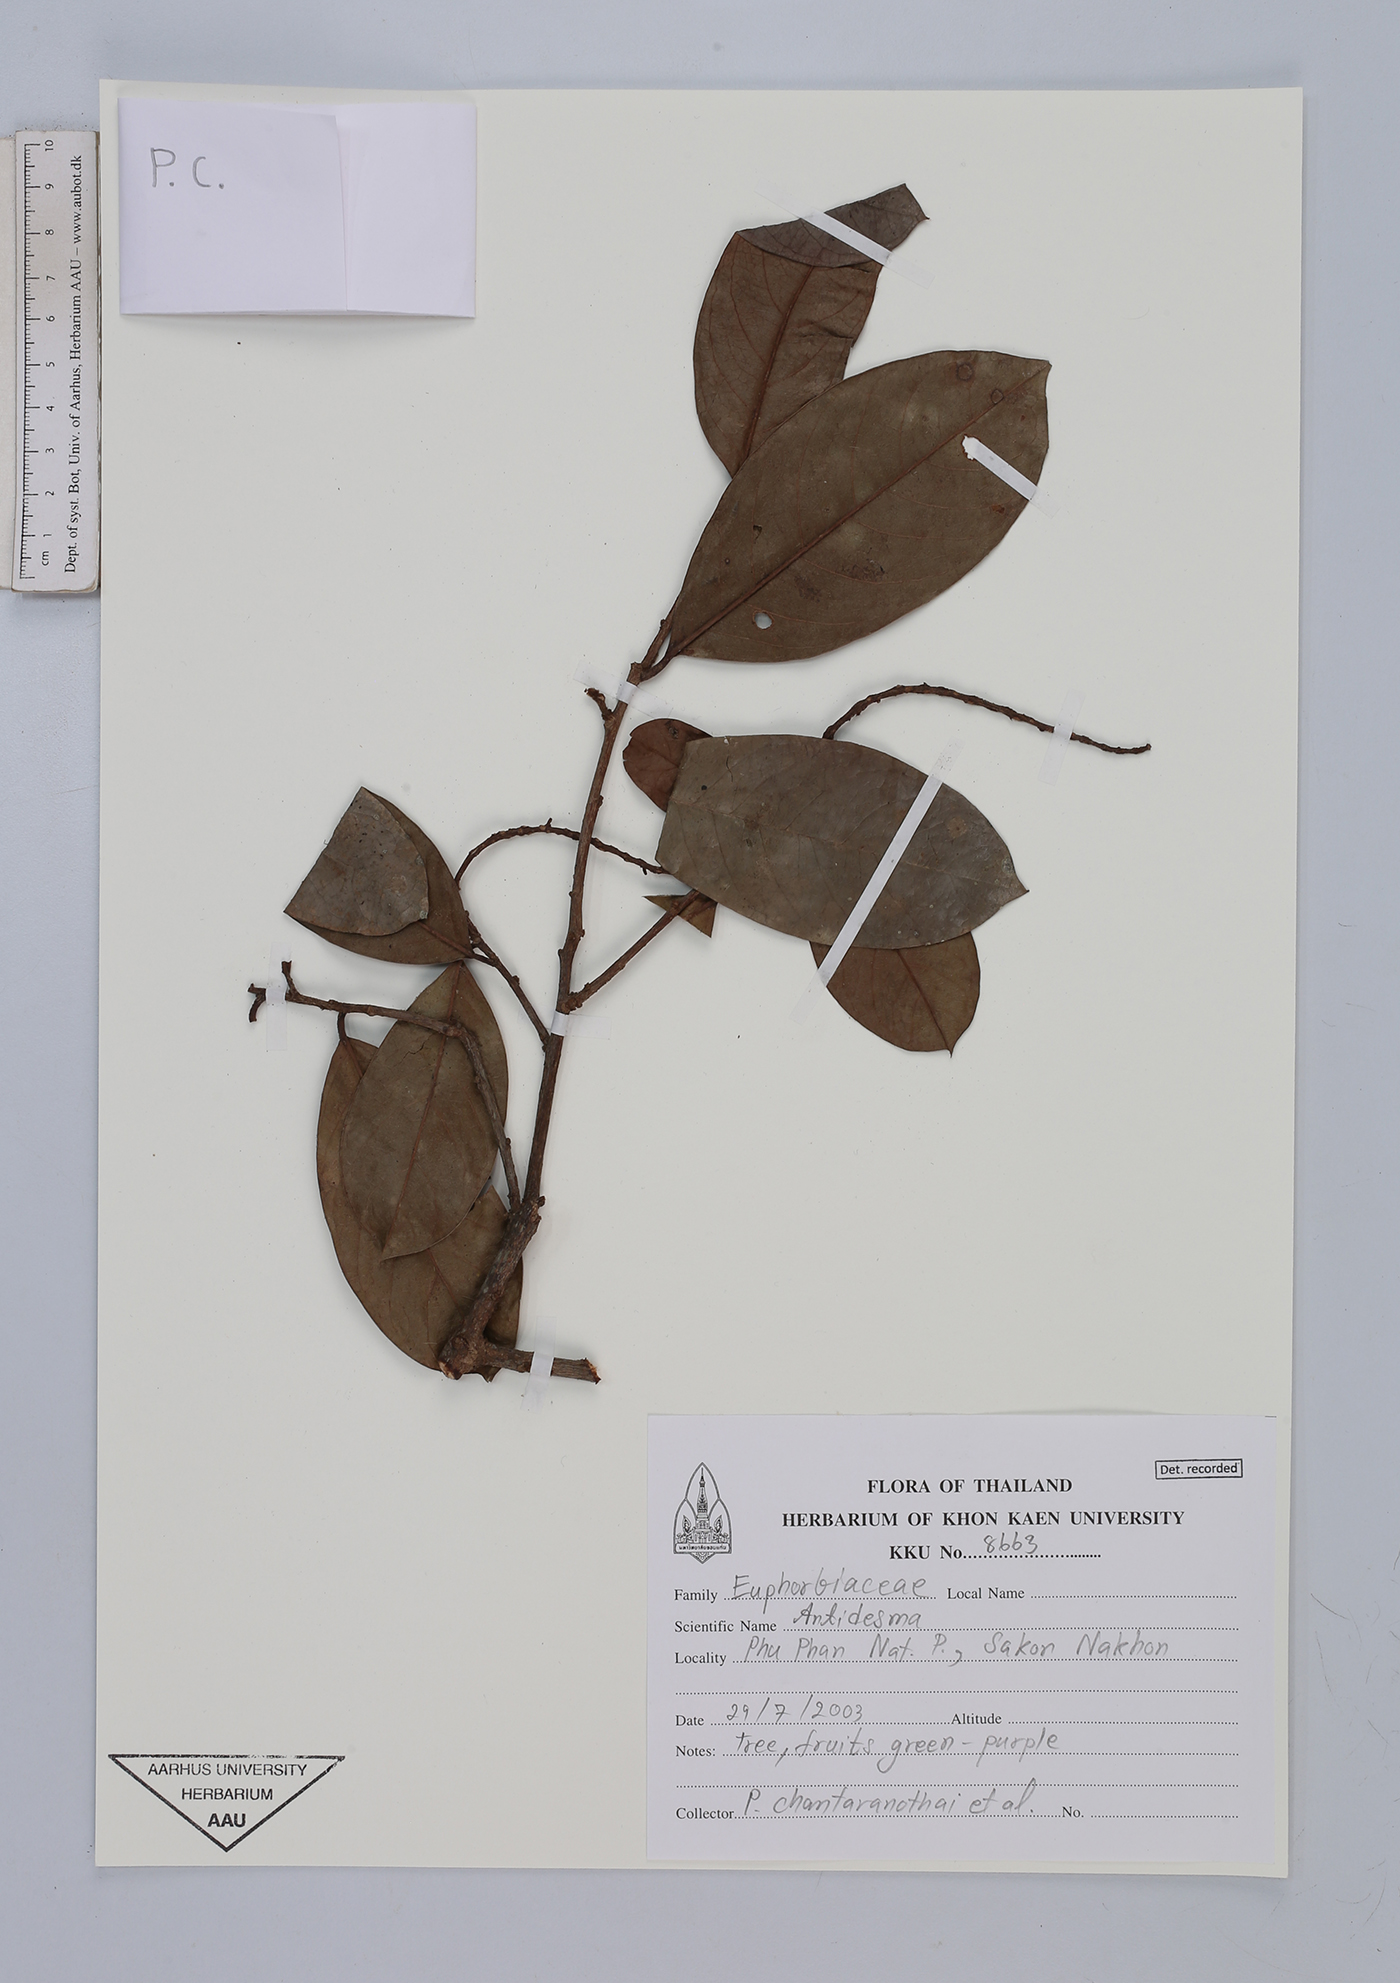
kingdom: Plantae
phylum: Tracheophyta
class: Magnoliopsida
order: Malpighiales
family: Phyllanthaceae
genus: Antidesma
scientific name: Antidesma
